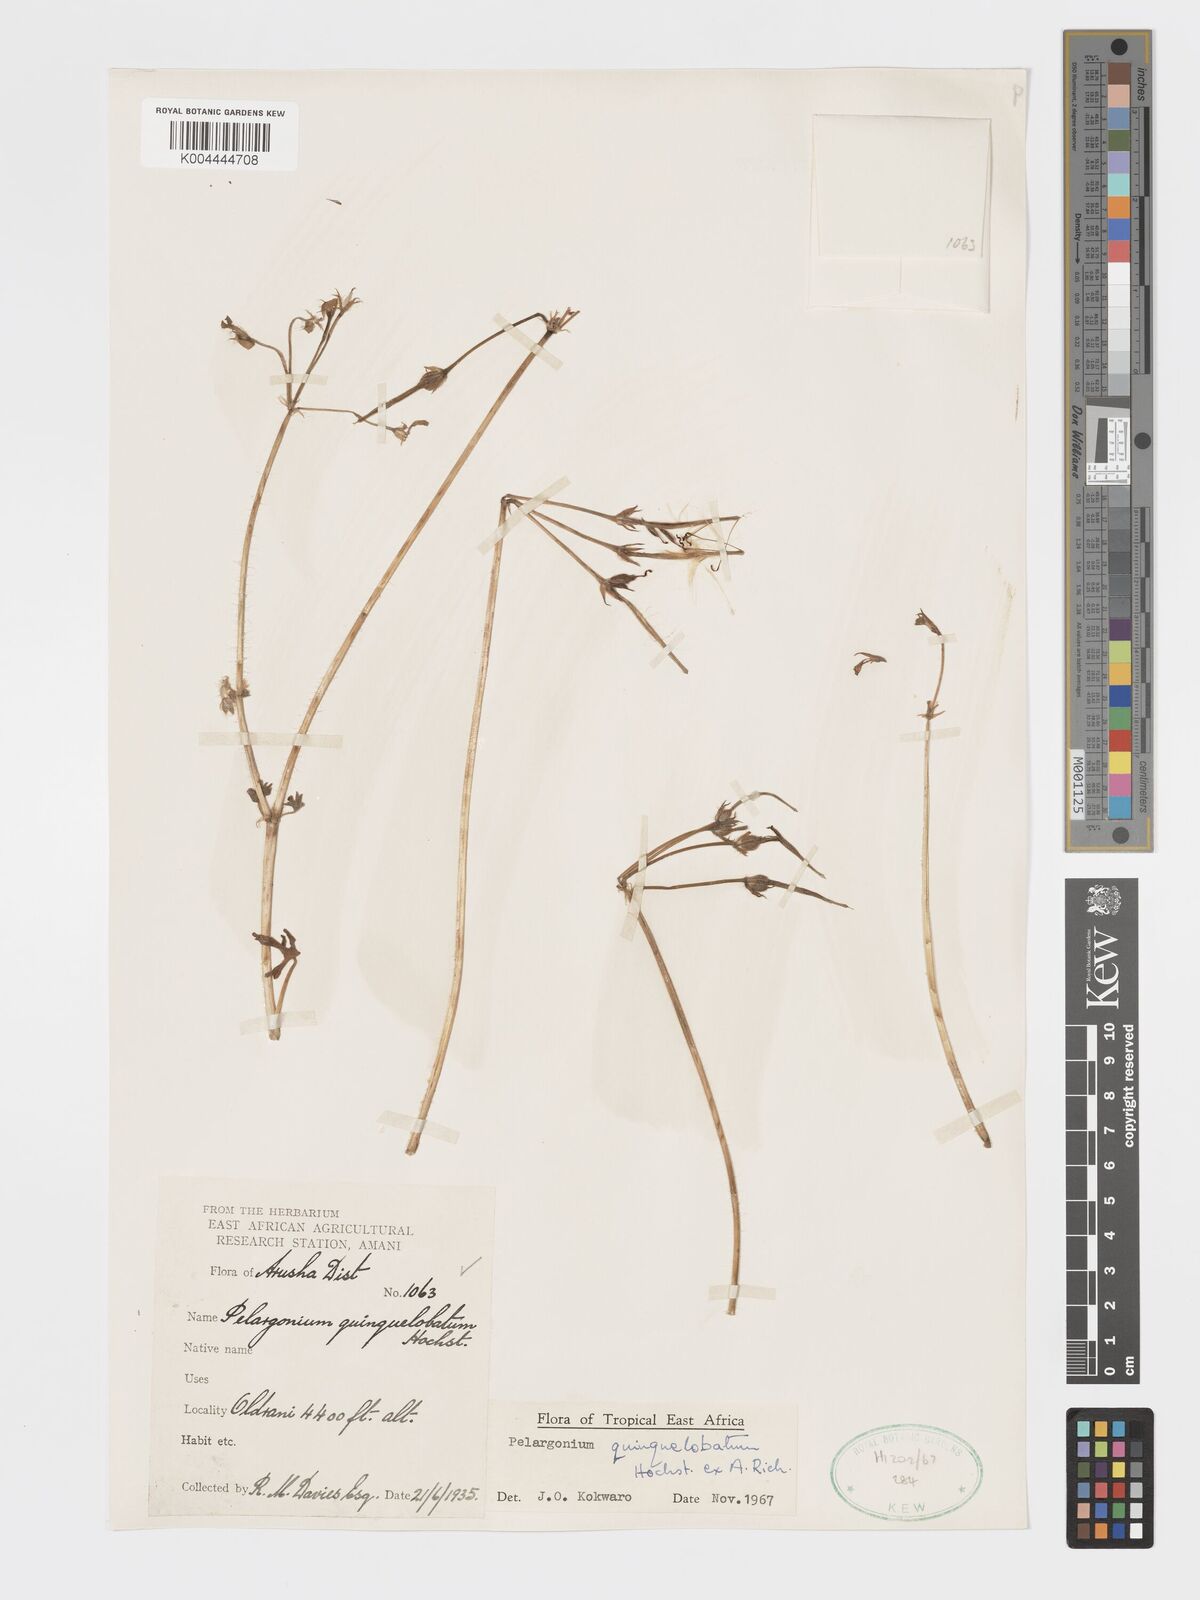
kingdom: Plantae
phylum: Tracheophyta
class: Magnoliopsida
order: Geraniales
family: Geraniaceae
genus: Pelargonium
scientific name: Pelargonium quinquelobatum
